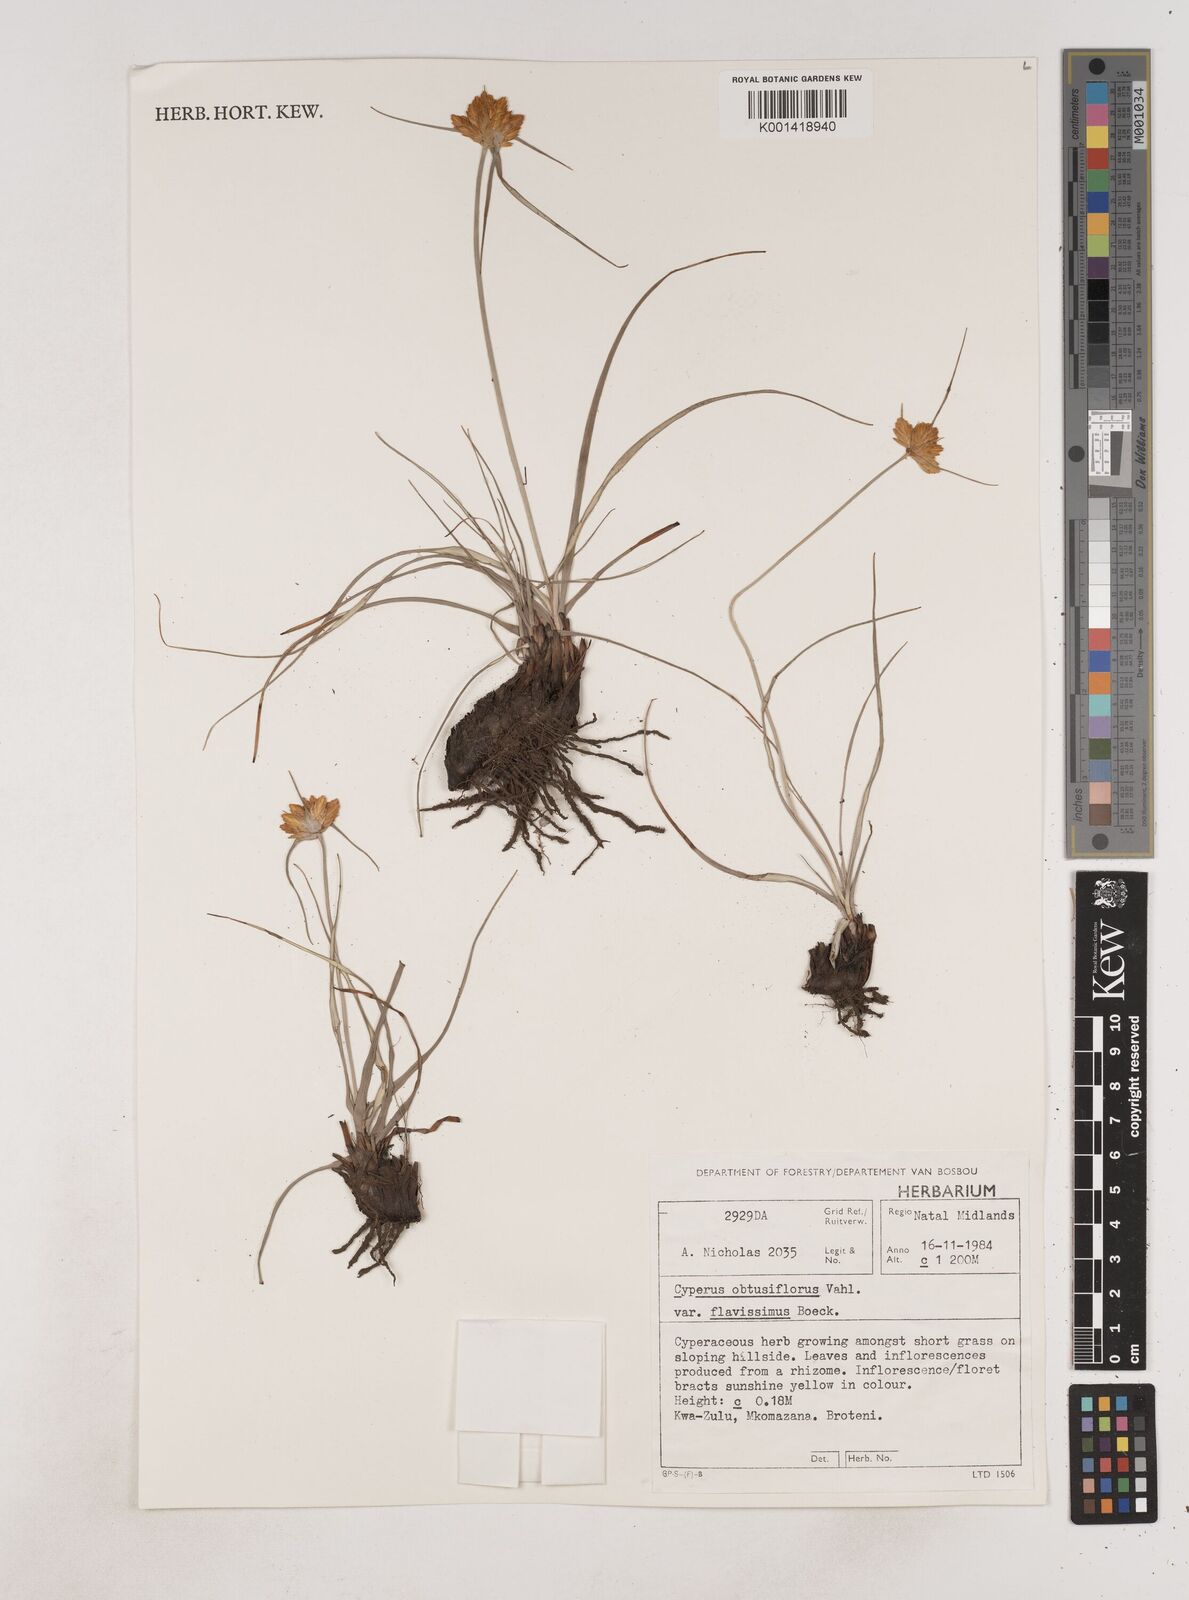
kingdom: Plantae
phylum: Tracheophyta
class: Liliopsida
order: Poales
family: Cyperaceae
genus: Cyperus
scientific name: Cyperus sphaerocephalus
